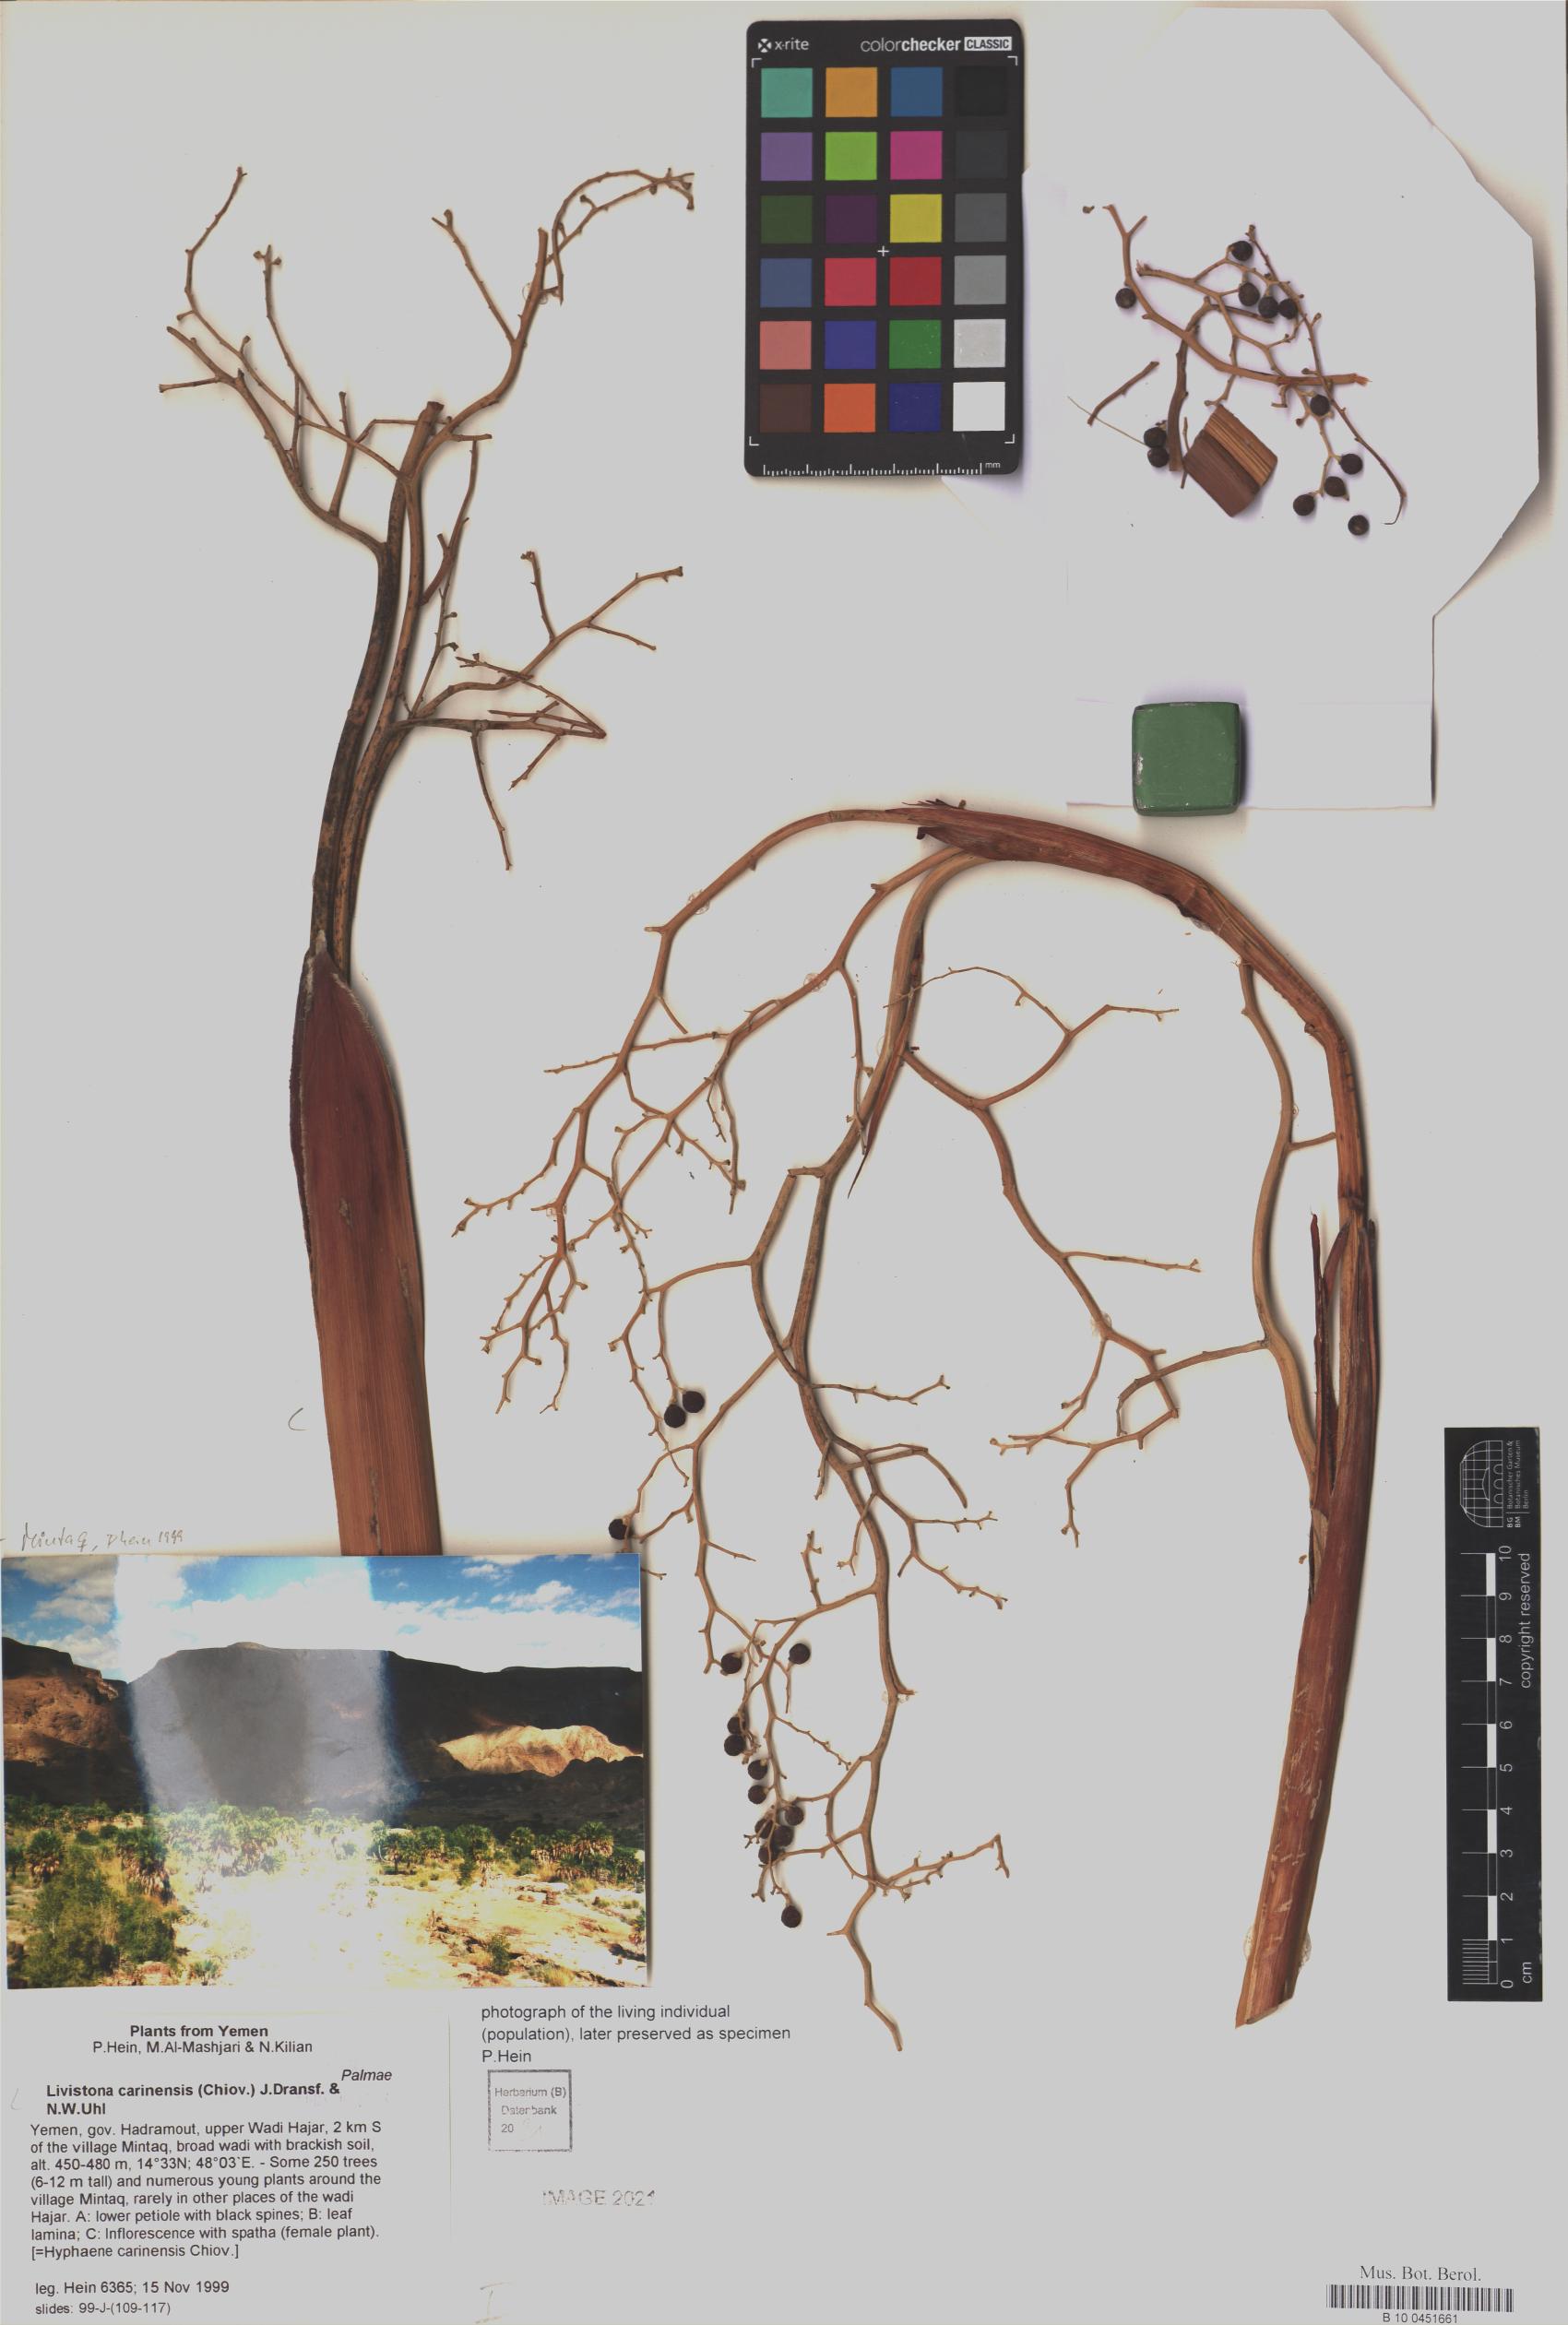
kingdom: Plantae
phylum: Tracheophyta
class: Liliopsida
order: Arecales
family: Arecaceae
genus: Livistona
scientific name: Livistona carinensis
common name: Bankoualé palm
